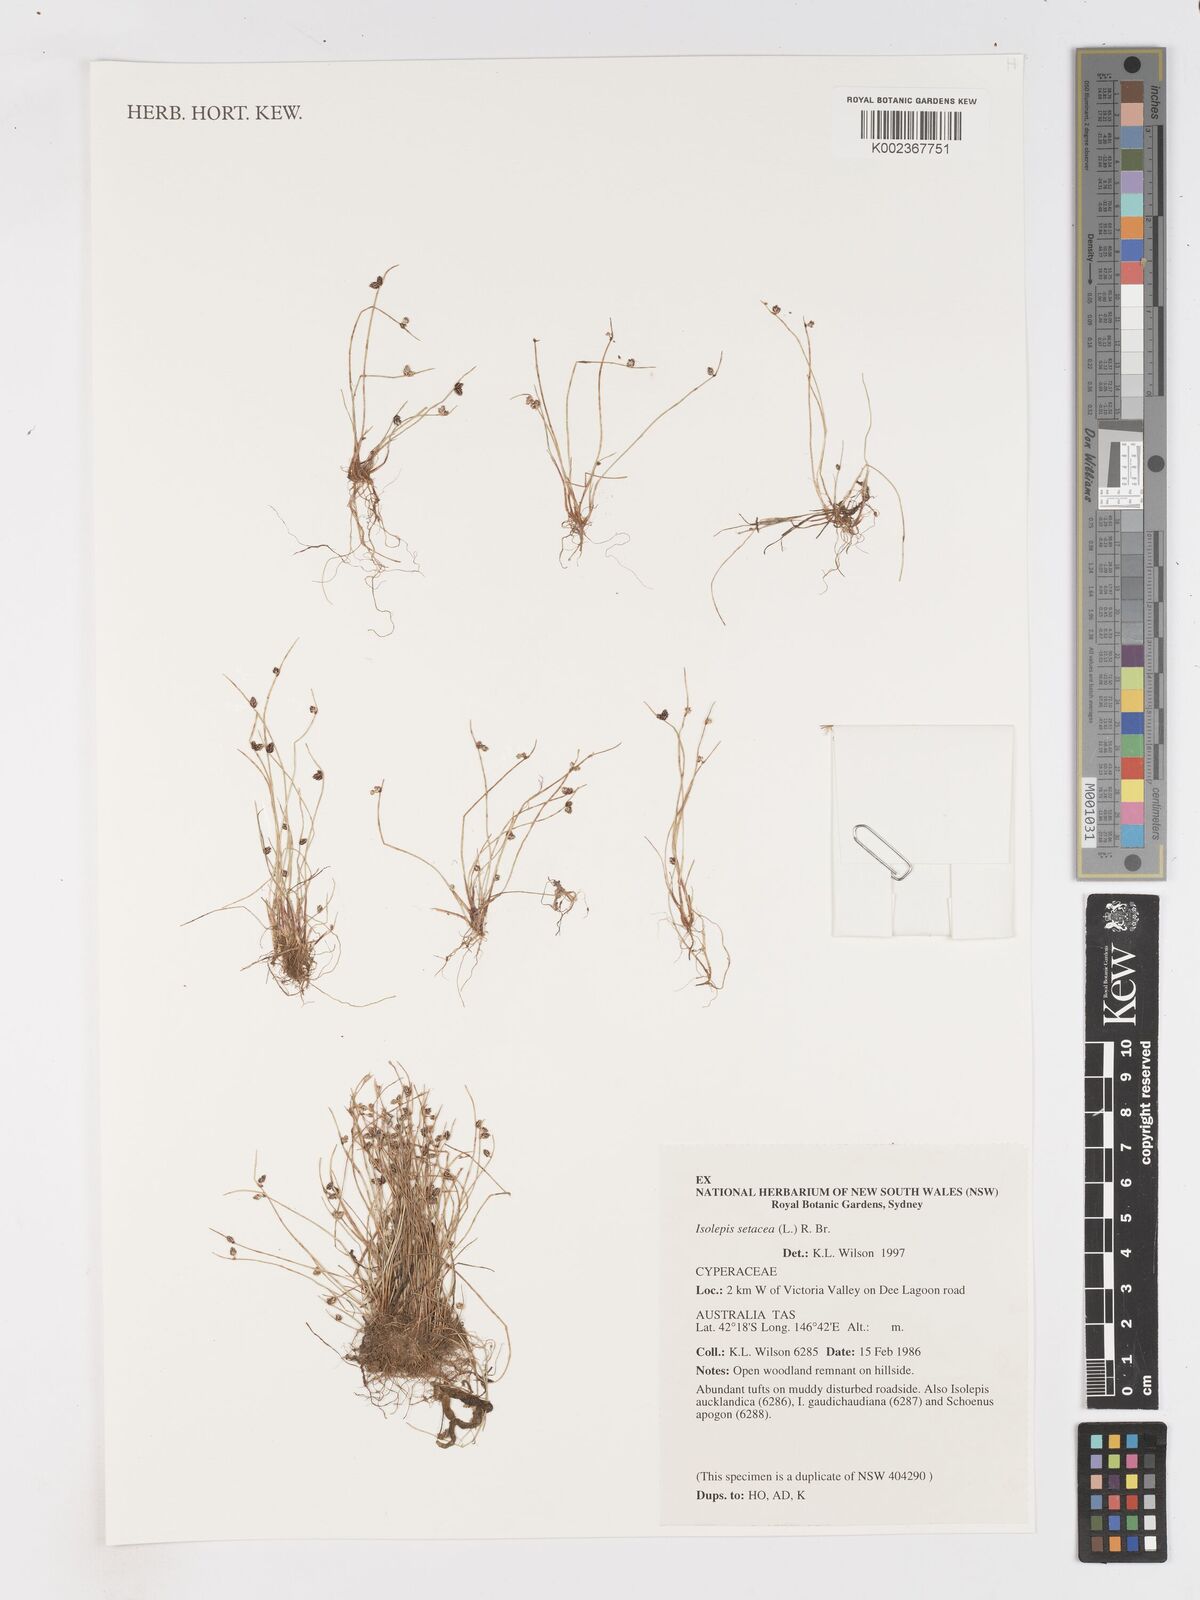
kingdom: Plantae
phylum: Tracheophyta
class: Liliopsida
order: Poales
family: Cyperaceae
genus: Isolepis
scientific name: Isolepis setacea
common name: Bristle club-rush
